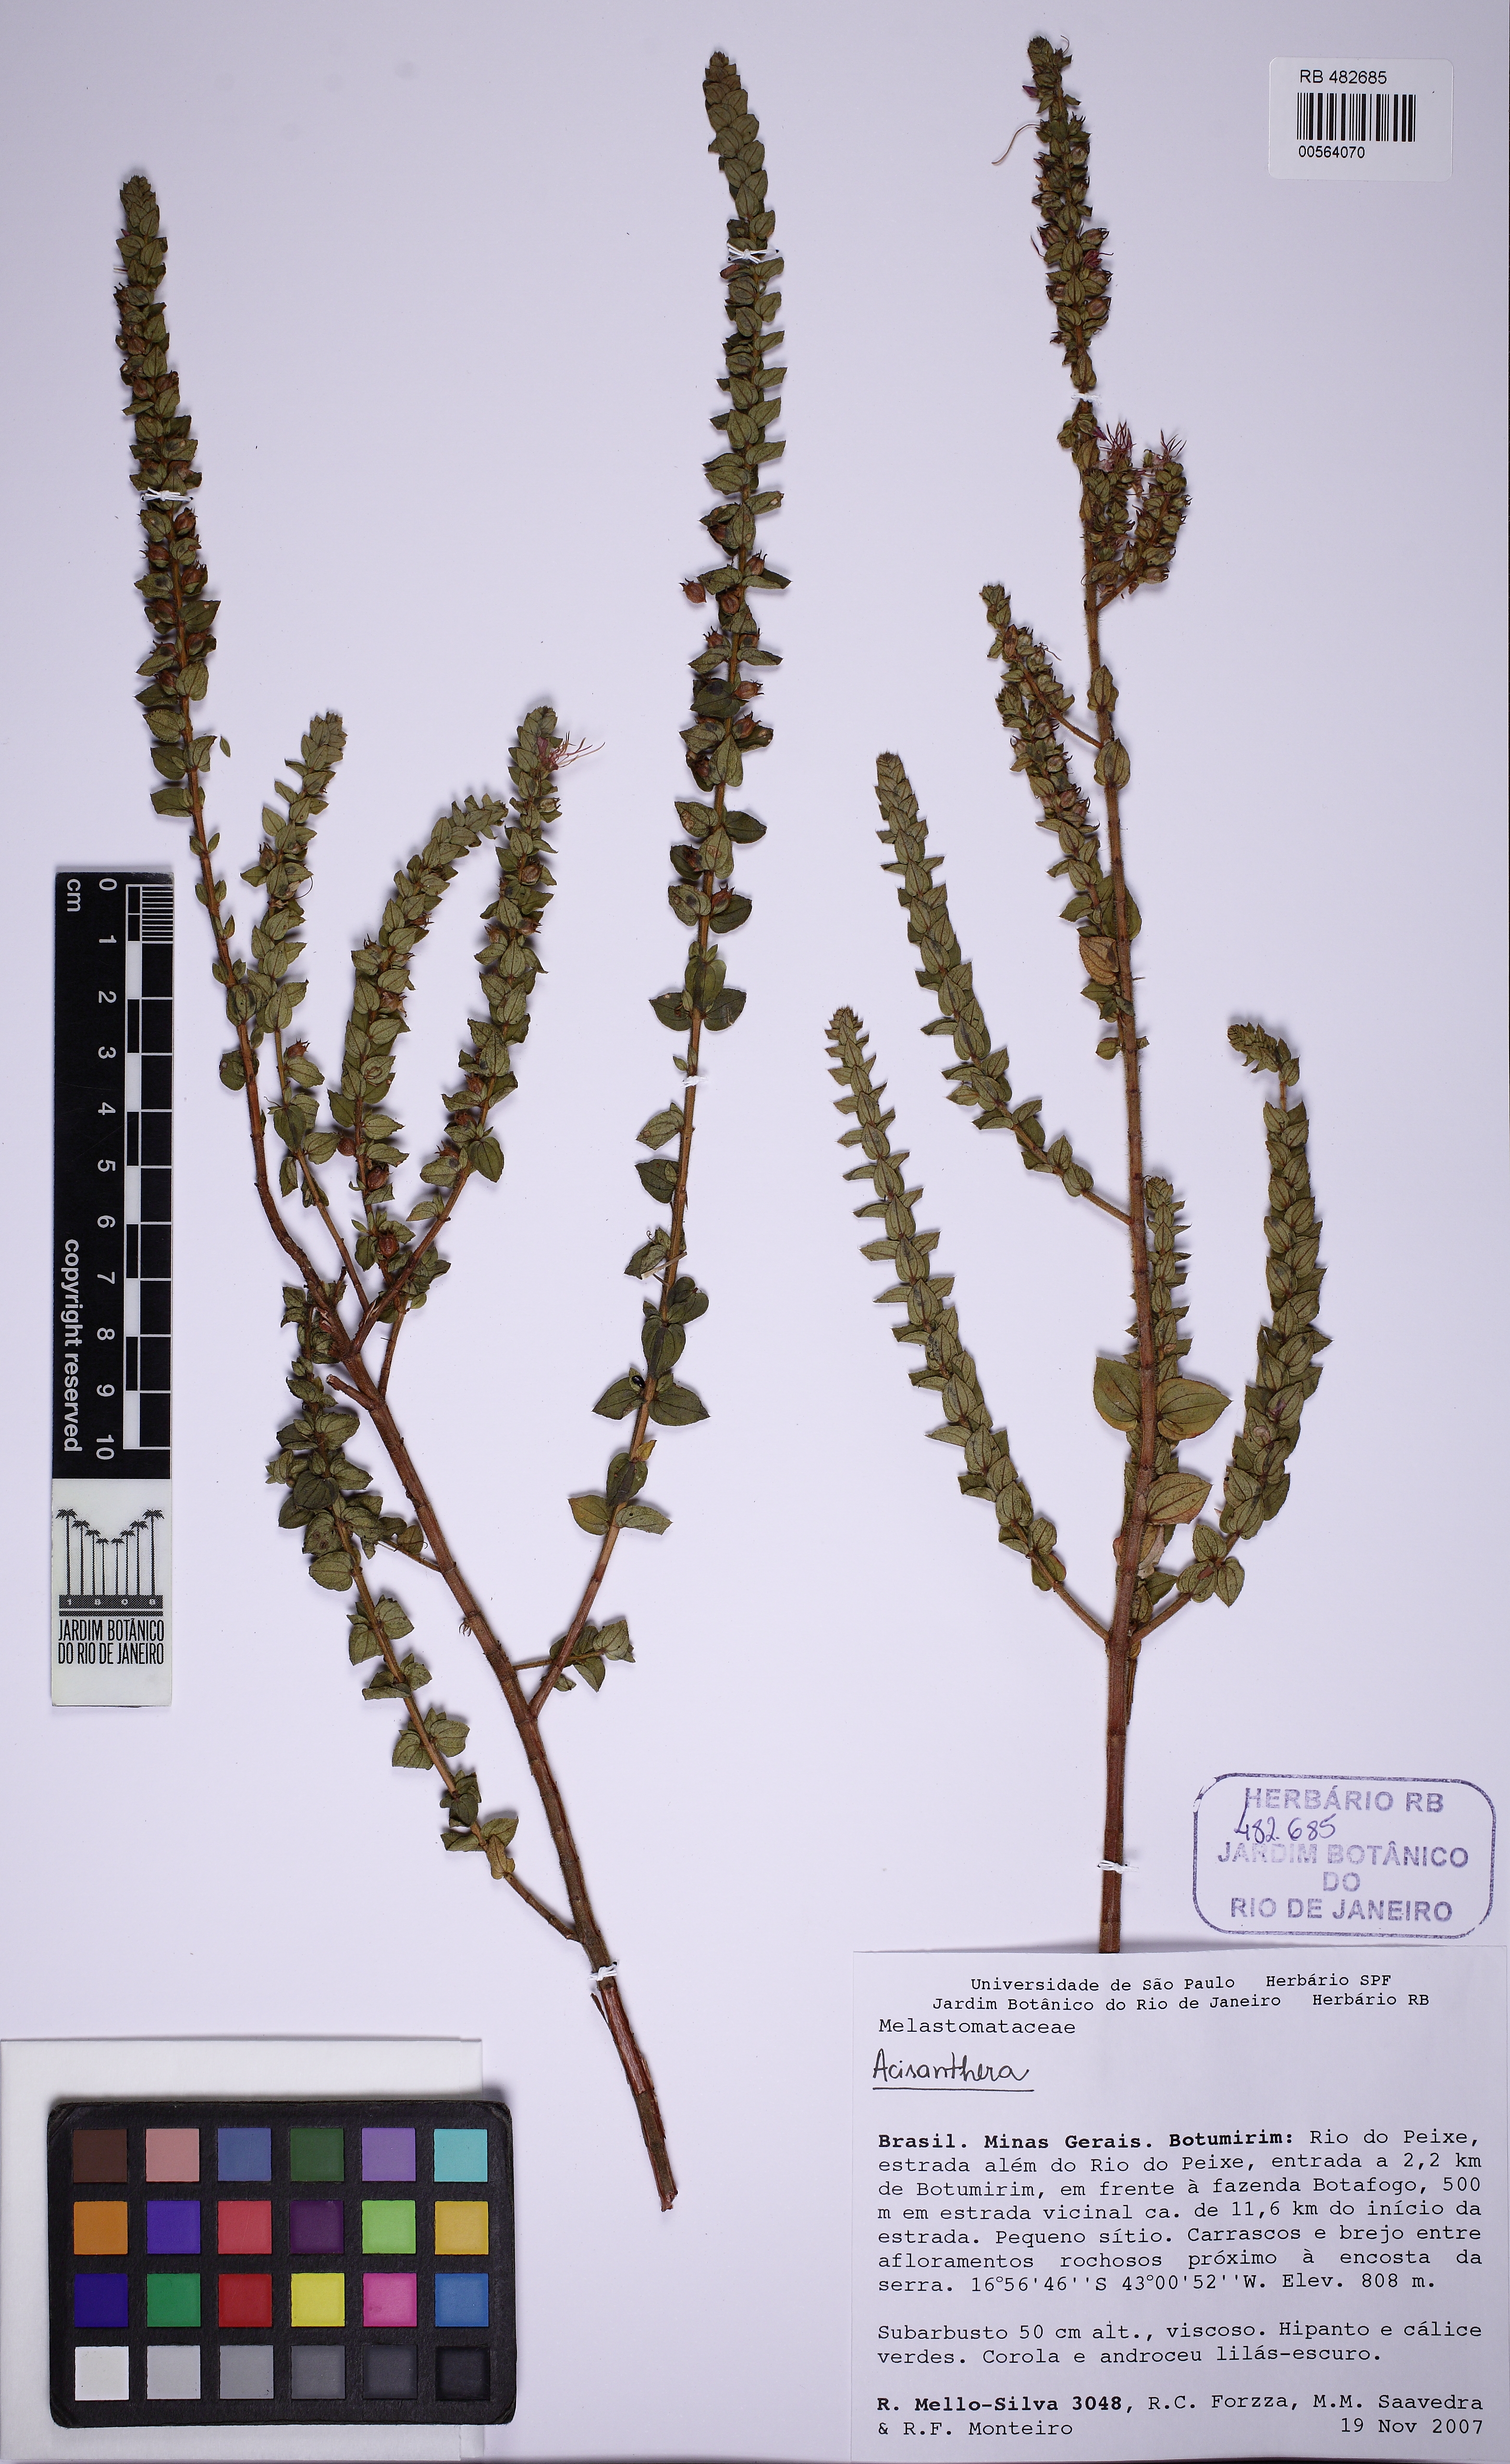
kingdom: Plantae
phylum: Tracheophyta
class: Magnoliopsida
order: Myrtales
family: Melastomataceae
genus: Fritzschia
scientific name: Fritzschia sessilis
